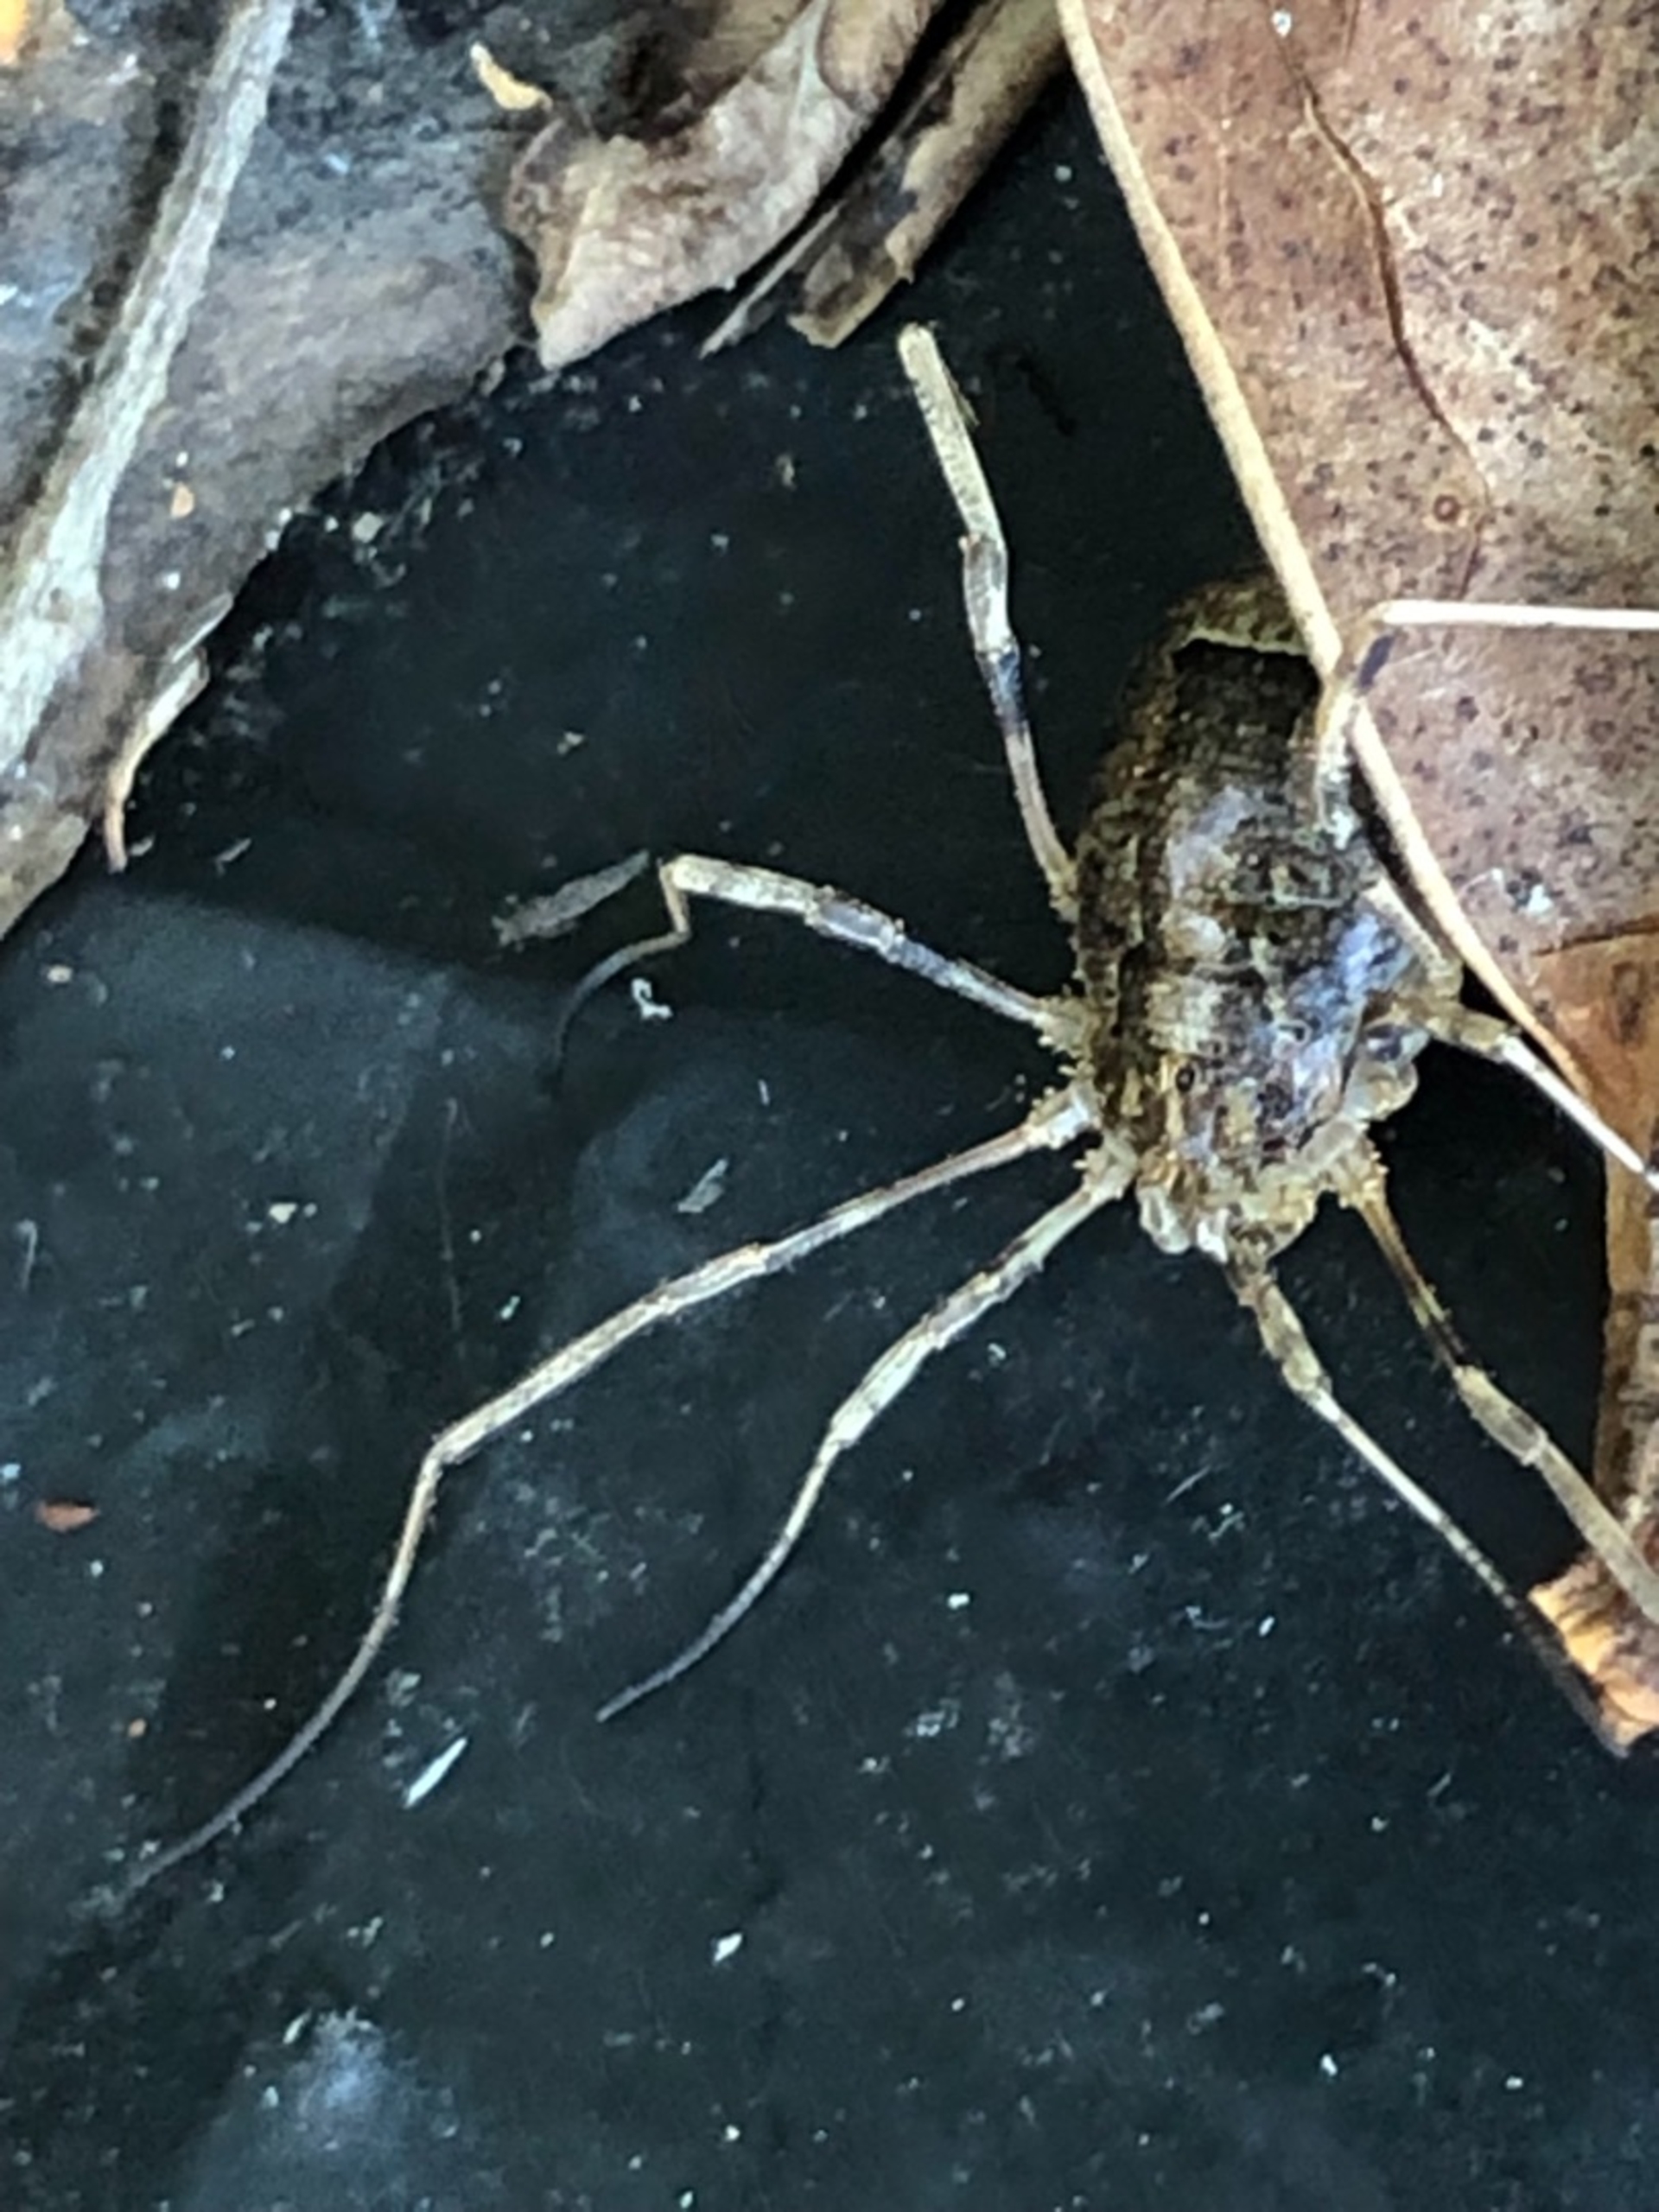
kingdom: Animalia
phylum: Arthropoda
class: Arachnida
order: Opiliones
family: Phalangiidae
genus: Odiellus
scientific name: Odiellus
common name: Kæmpemejere
